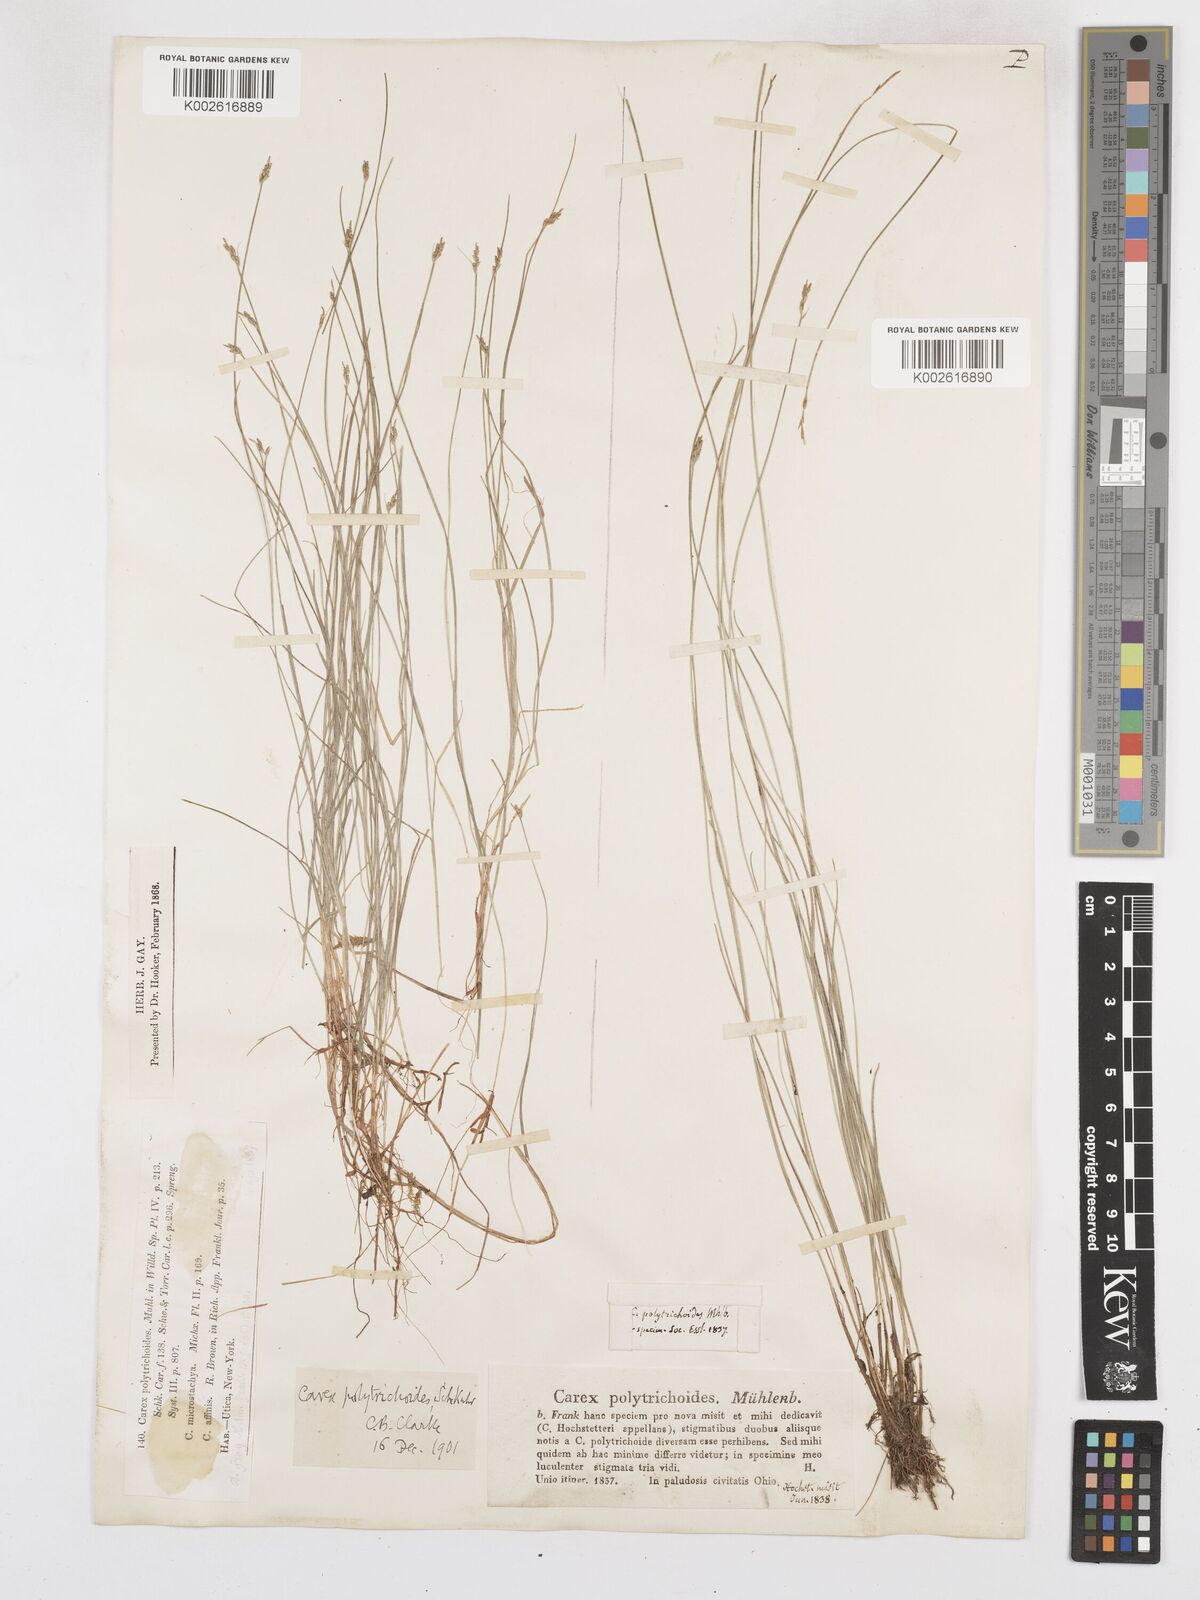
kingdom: Plantae
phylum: Tracheophyta
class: Liliopsida
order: Poales
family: Cyperaceae
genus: Carex
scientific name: Carex leptalea
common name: Bristly-stalked sedge
